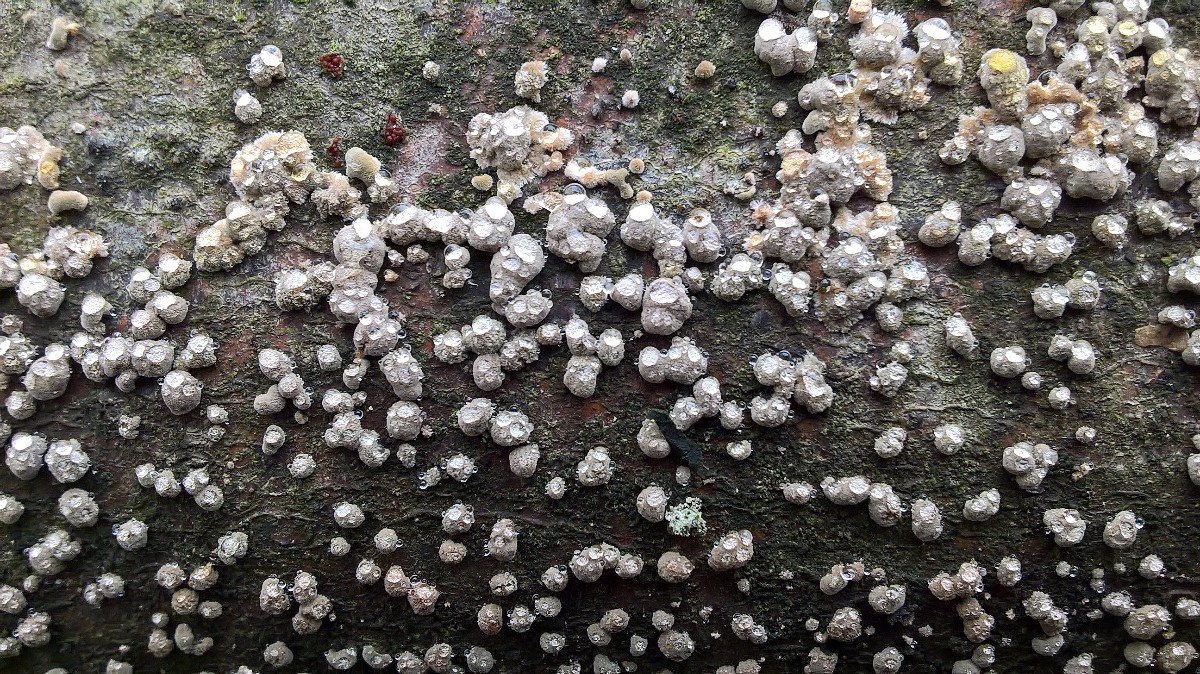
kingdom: Fungi
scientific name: Fungi
